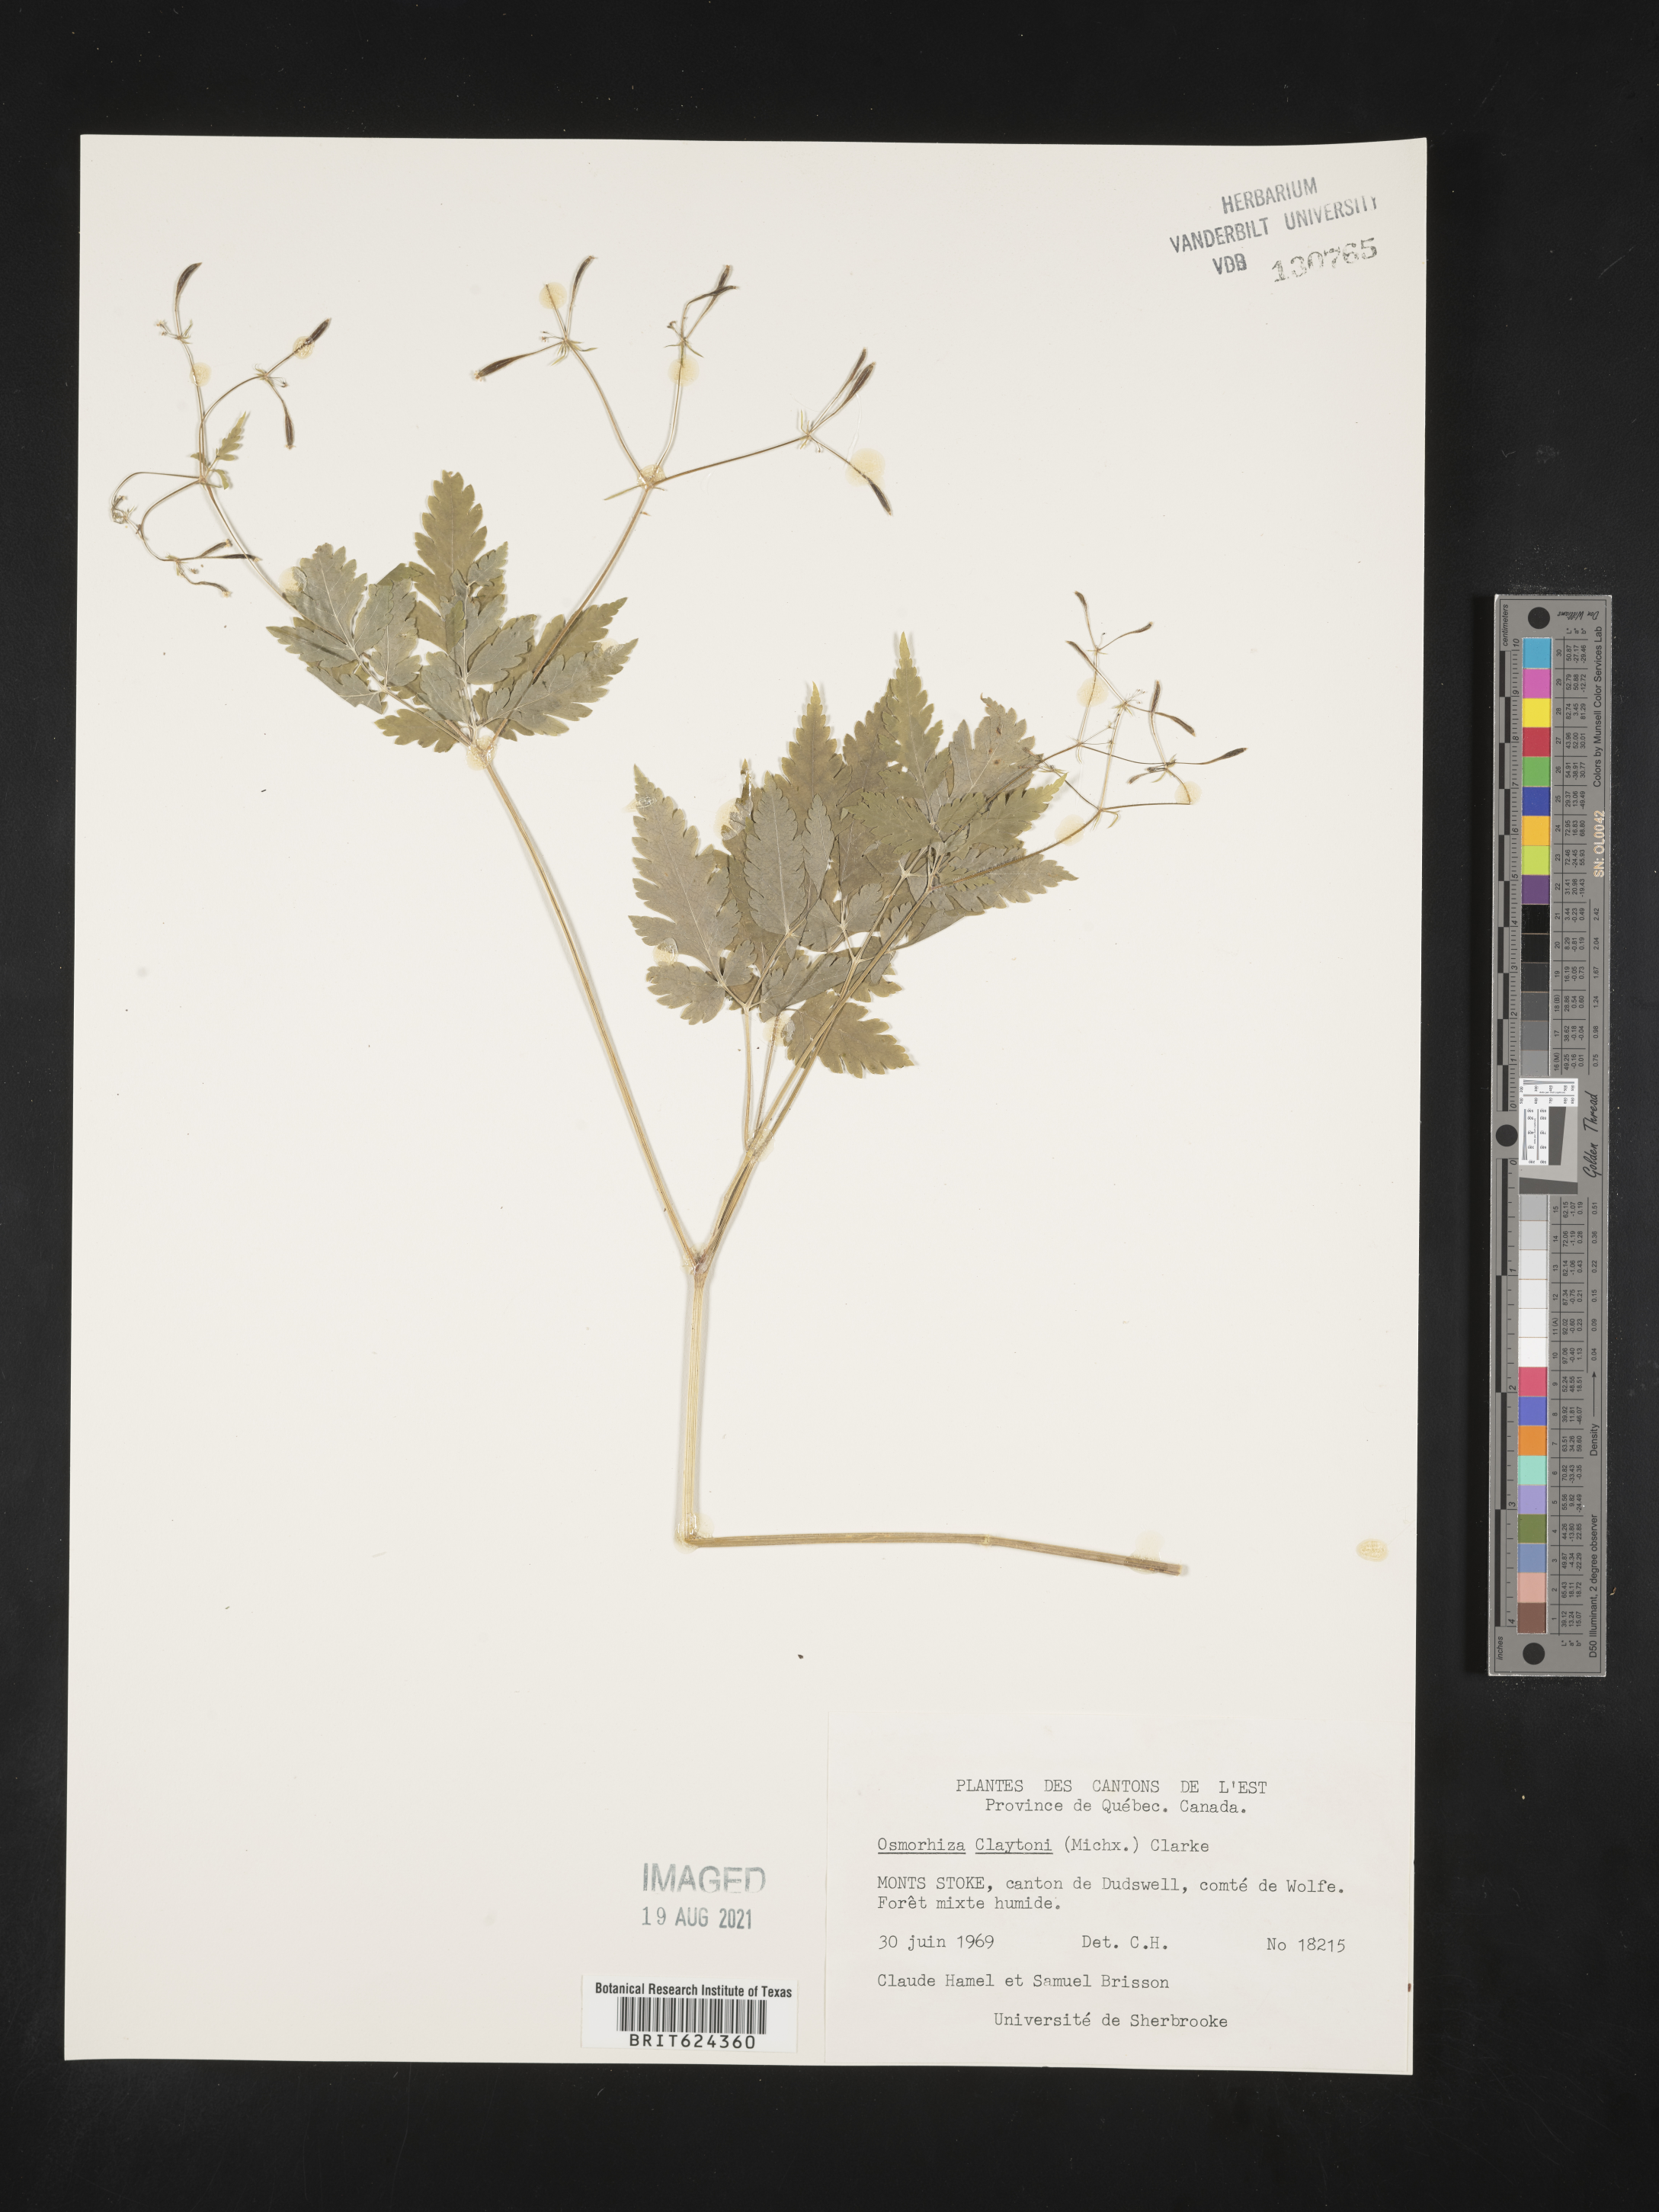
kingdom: Plantae
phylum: Tracheophyta
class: Magnoliopsida
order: Apiales
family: Apiaceae
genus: Osmorhiza
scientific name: Osmorhiza claytonii
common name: Hairy sweet cicely
